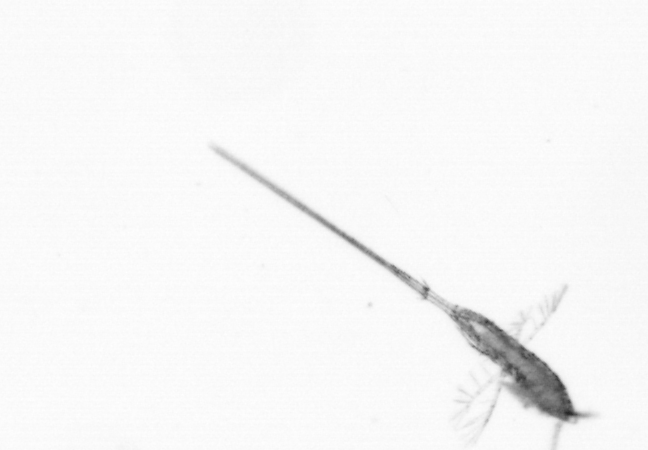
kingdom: Animalia
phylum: Arthropoda
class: Copepoda
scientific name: Copepoda
